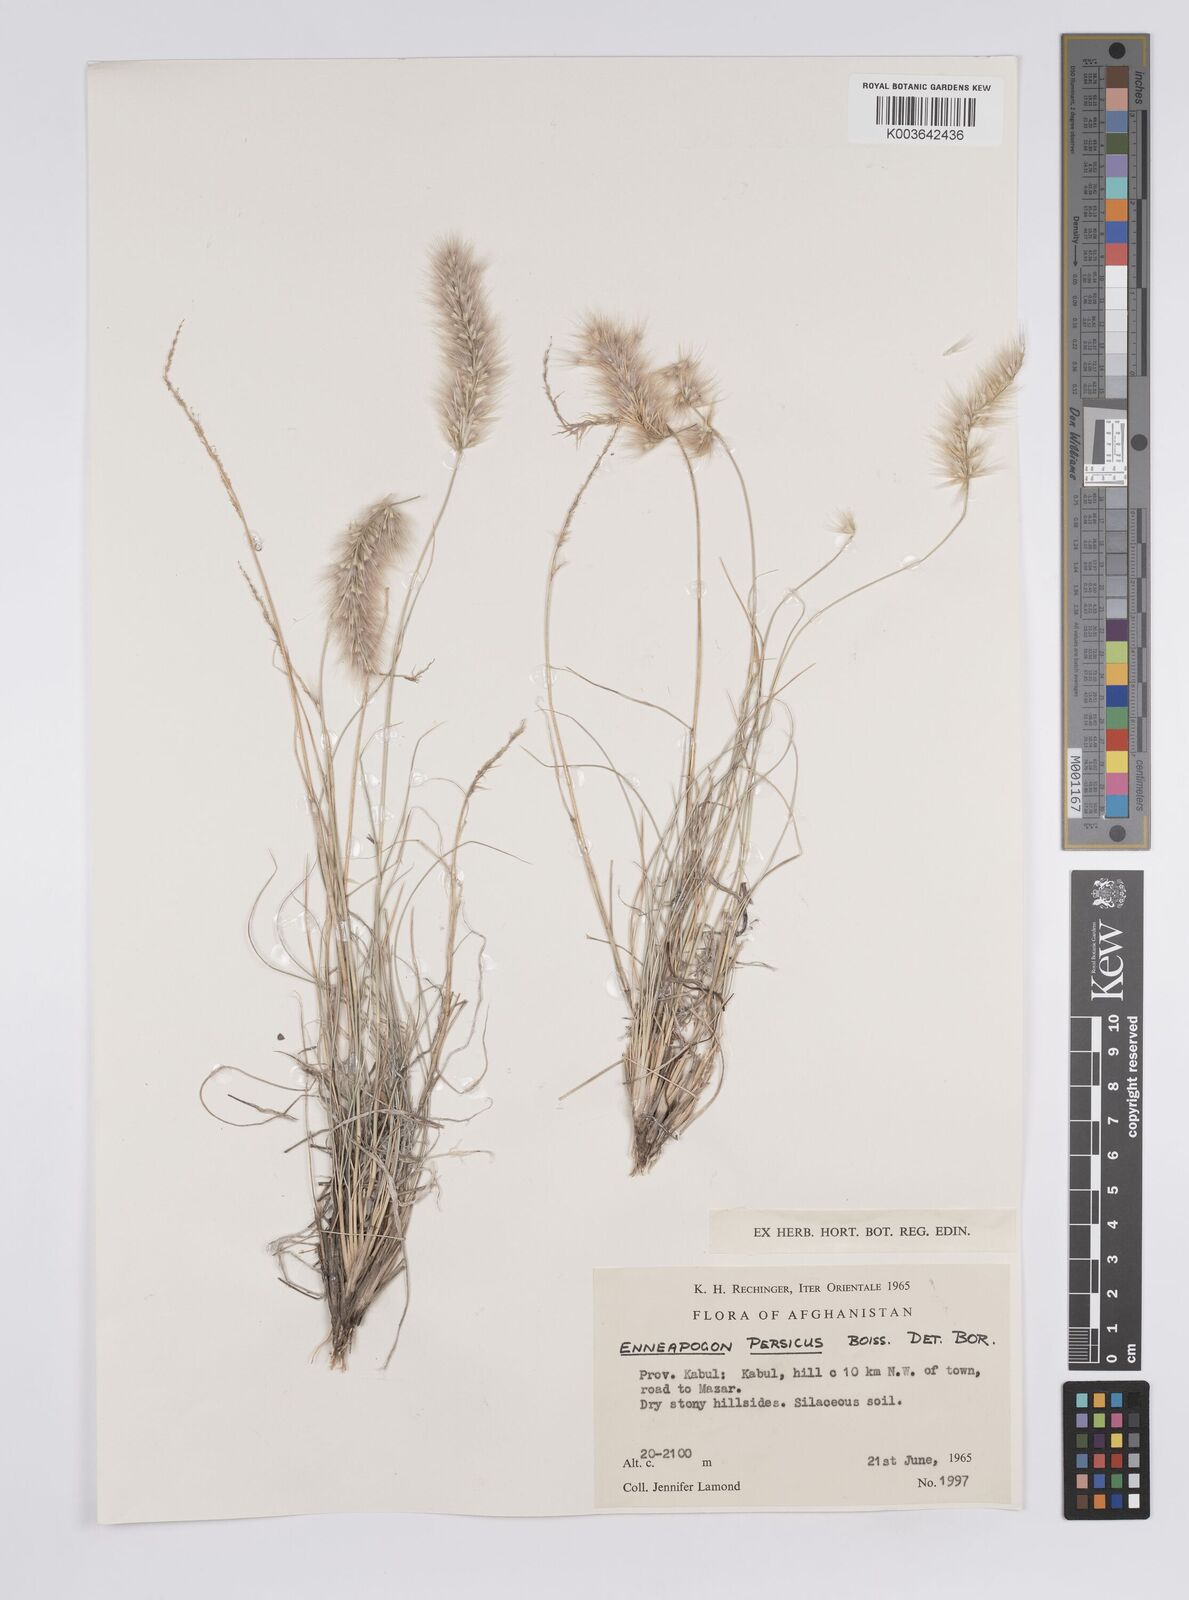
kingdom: Plantae
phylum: Tracheophyta
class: Liliopsida
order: Poales
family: Poaceae
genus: Enneapogon
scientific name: Enneapogon persicus
